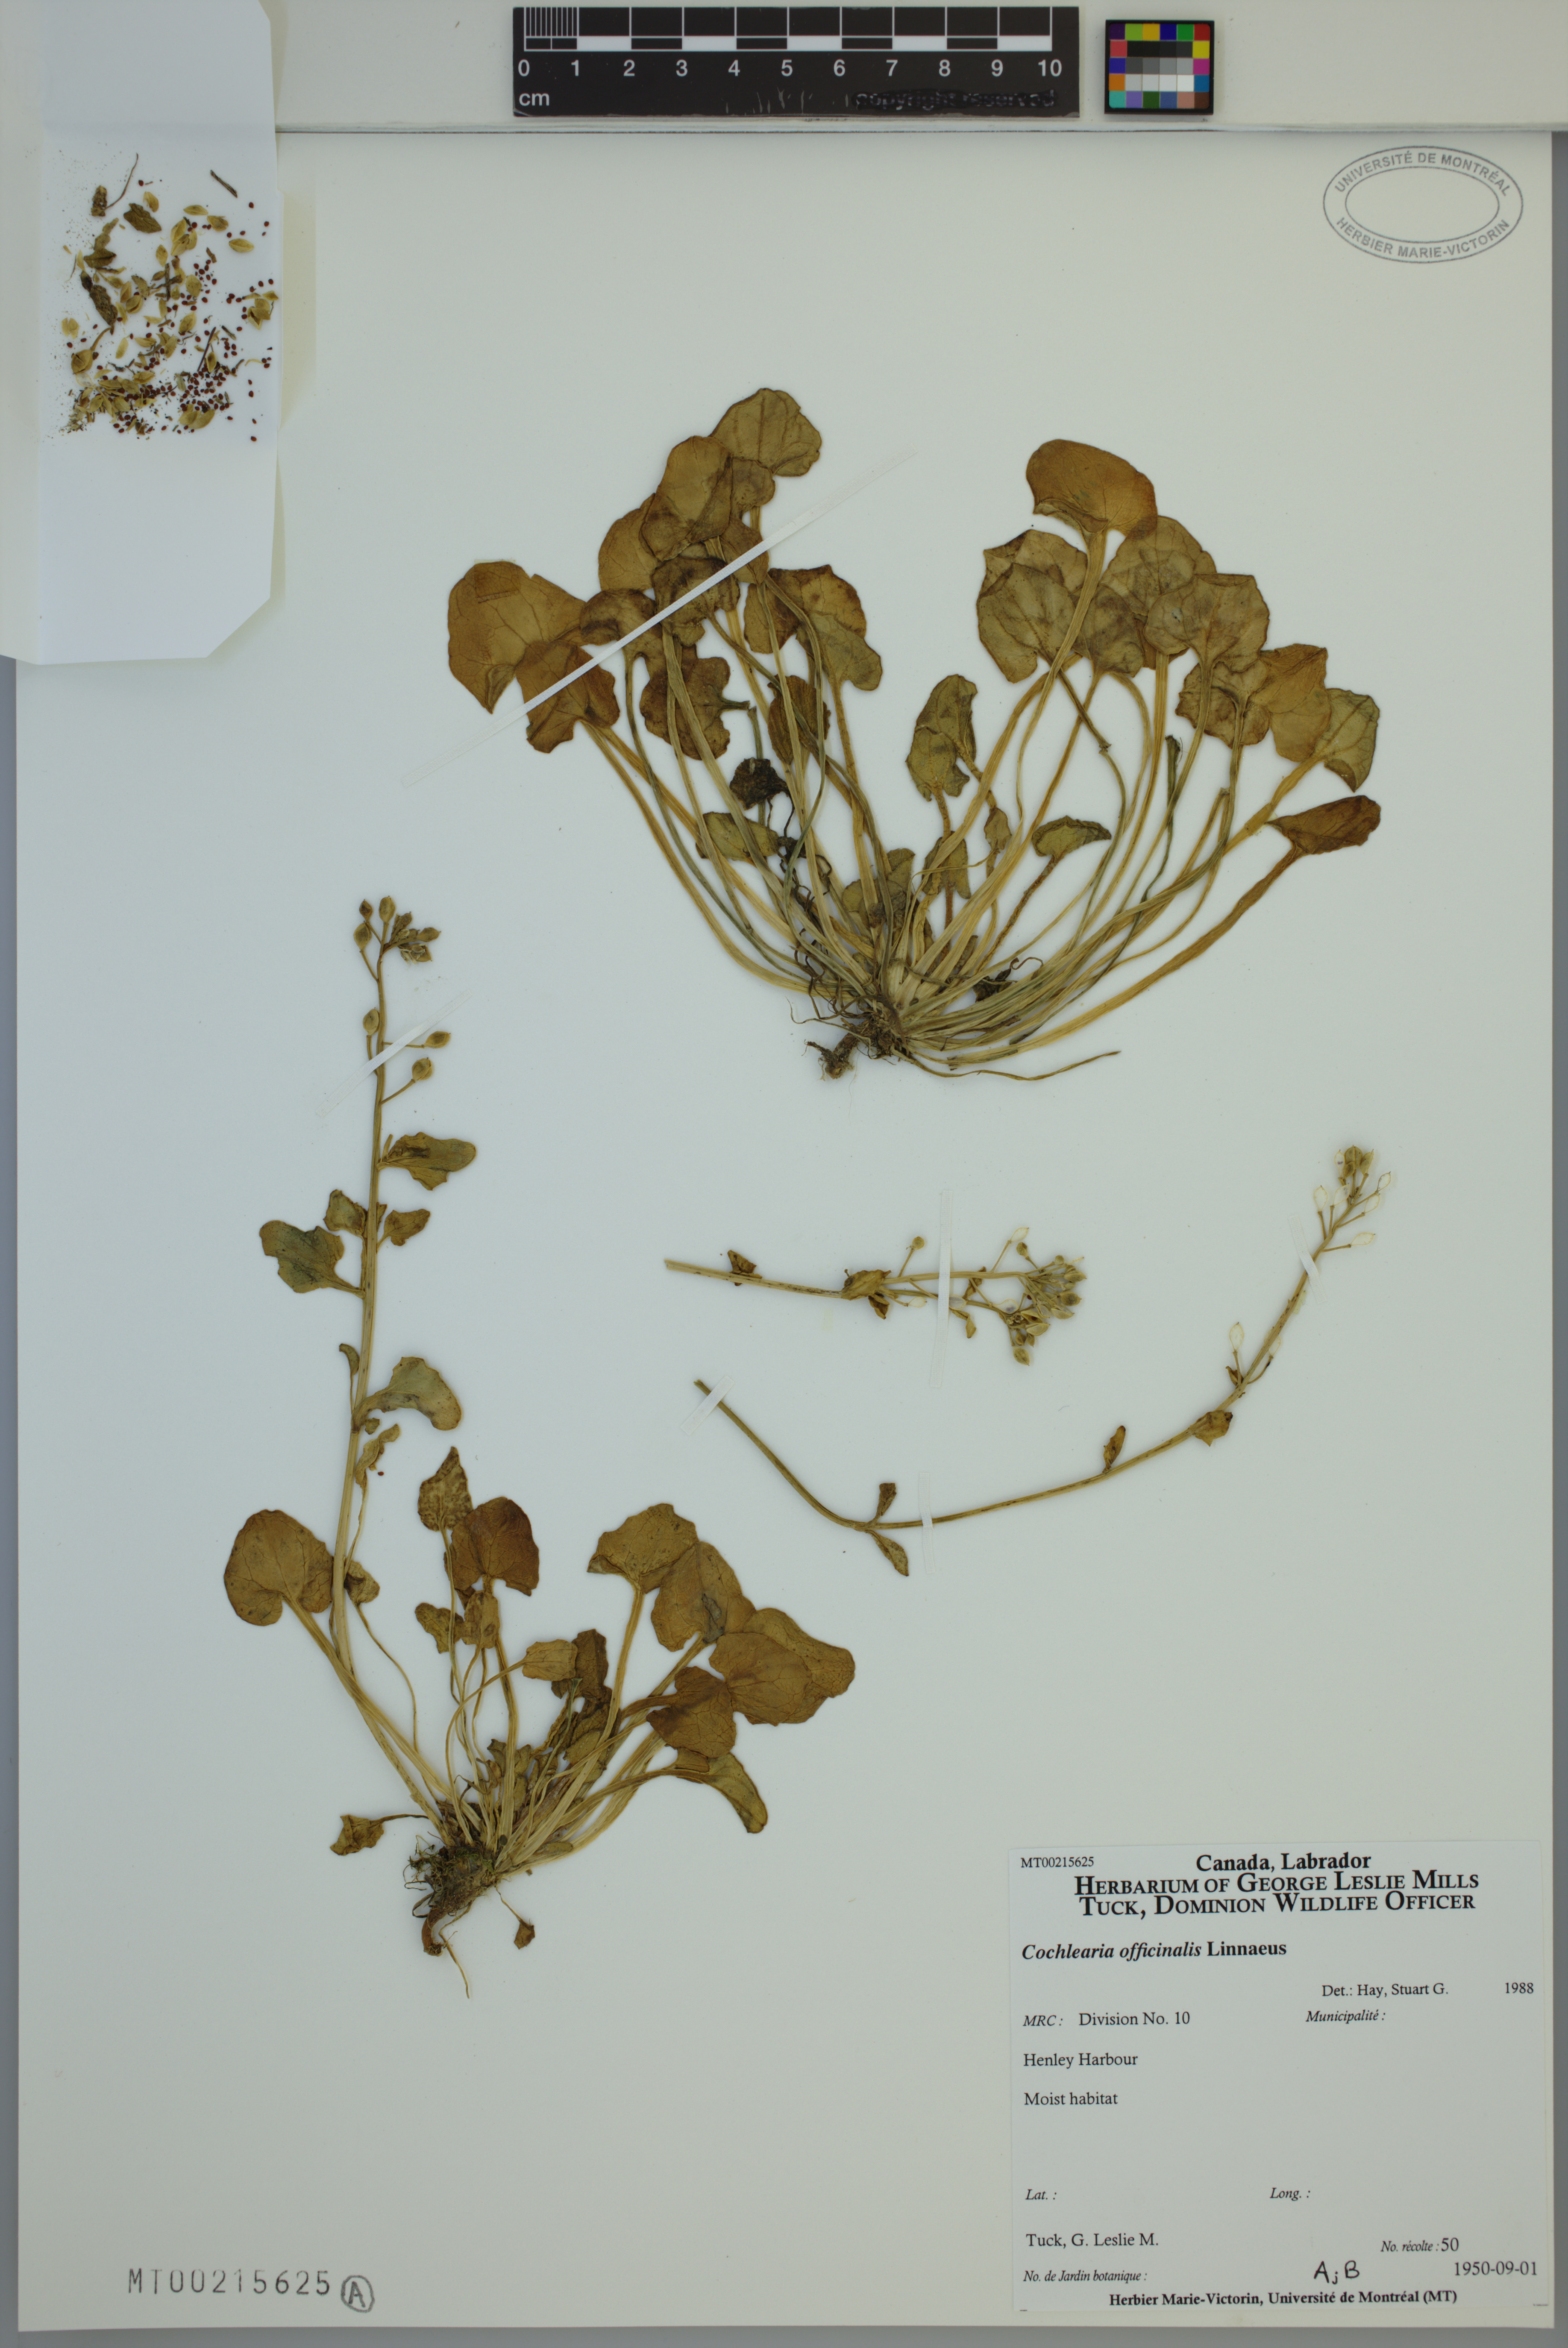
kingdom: Plantae
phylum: Tracheophyta
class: Magnoliopsida
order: Brassicales
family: Brassicaceae
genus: Cochlearia
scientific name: Cochlearia officinalis
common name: Scurvy-grass
